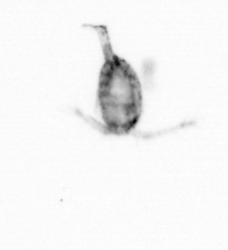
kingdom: Animalia
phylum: Arthropoda
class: Copepoda
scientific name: Copepoda
